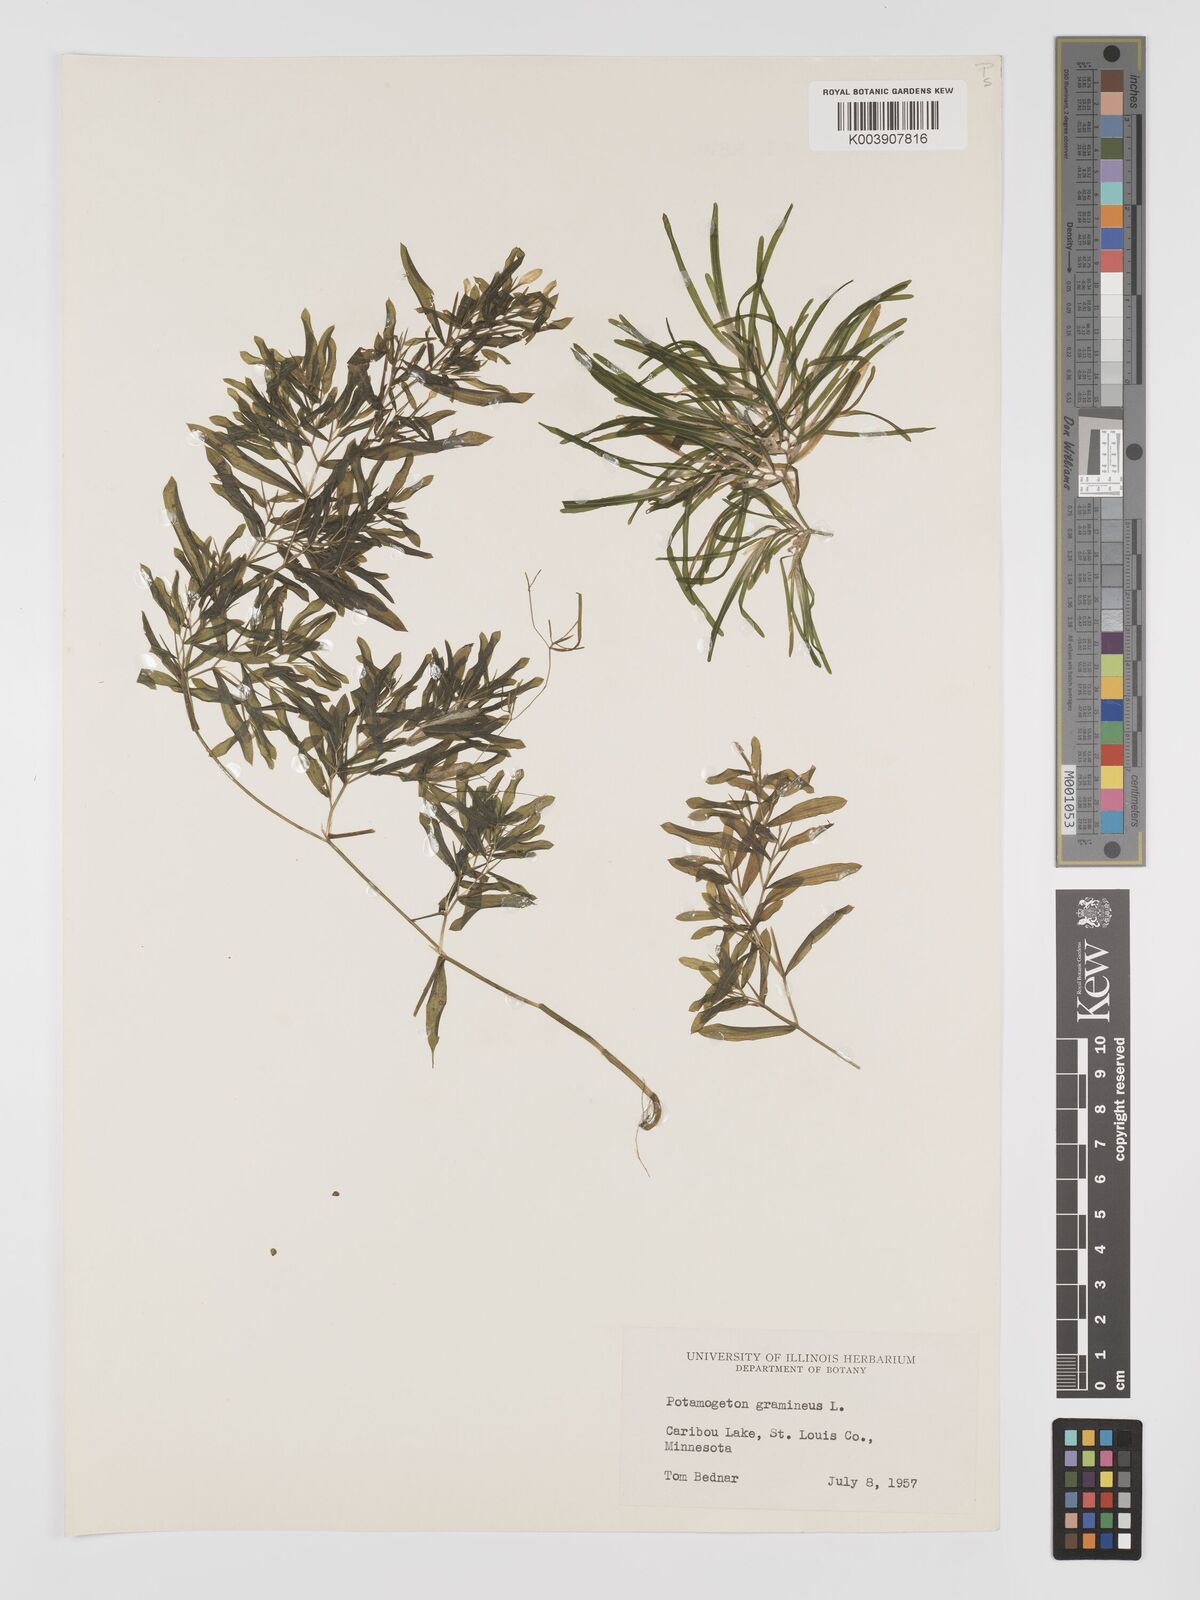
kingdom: Plantae
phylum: Tracheophyta
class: Liliopsida
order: Alismatales
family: Potamogetonaceae
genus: Potamogeton
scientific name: Potamogeton gramineus
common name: Various-leaved pondweed
